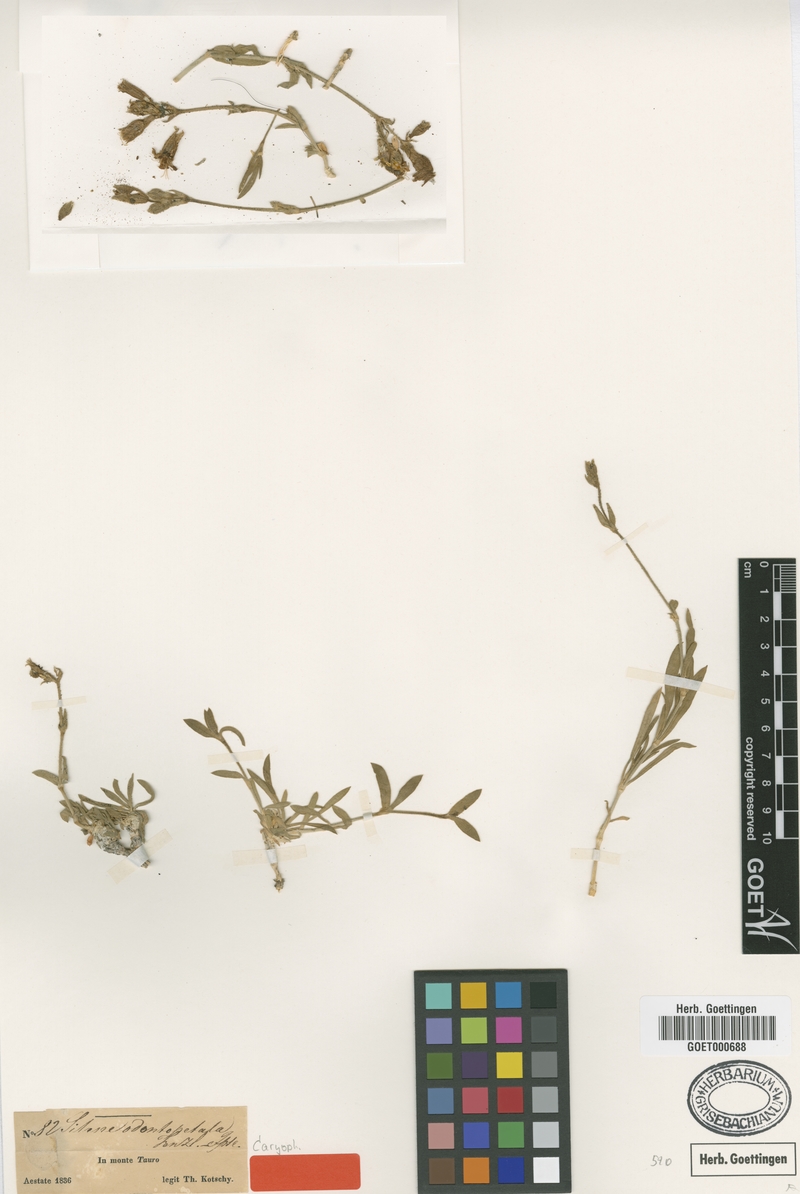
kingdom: Plantae
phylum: Tracheophyta
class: Magnoliopsida
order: Caryophyllales
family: Caryophyllaceae
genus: Silene
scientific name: Silene odontopetala
